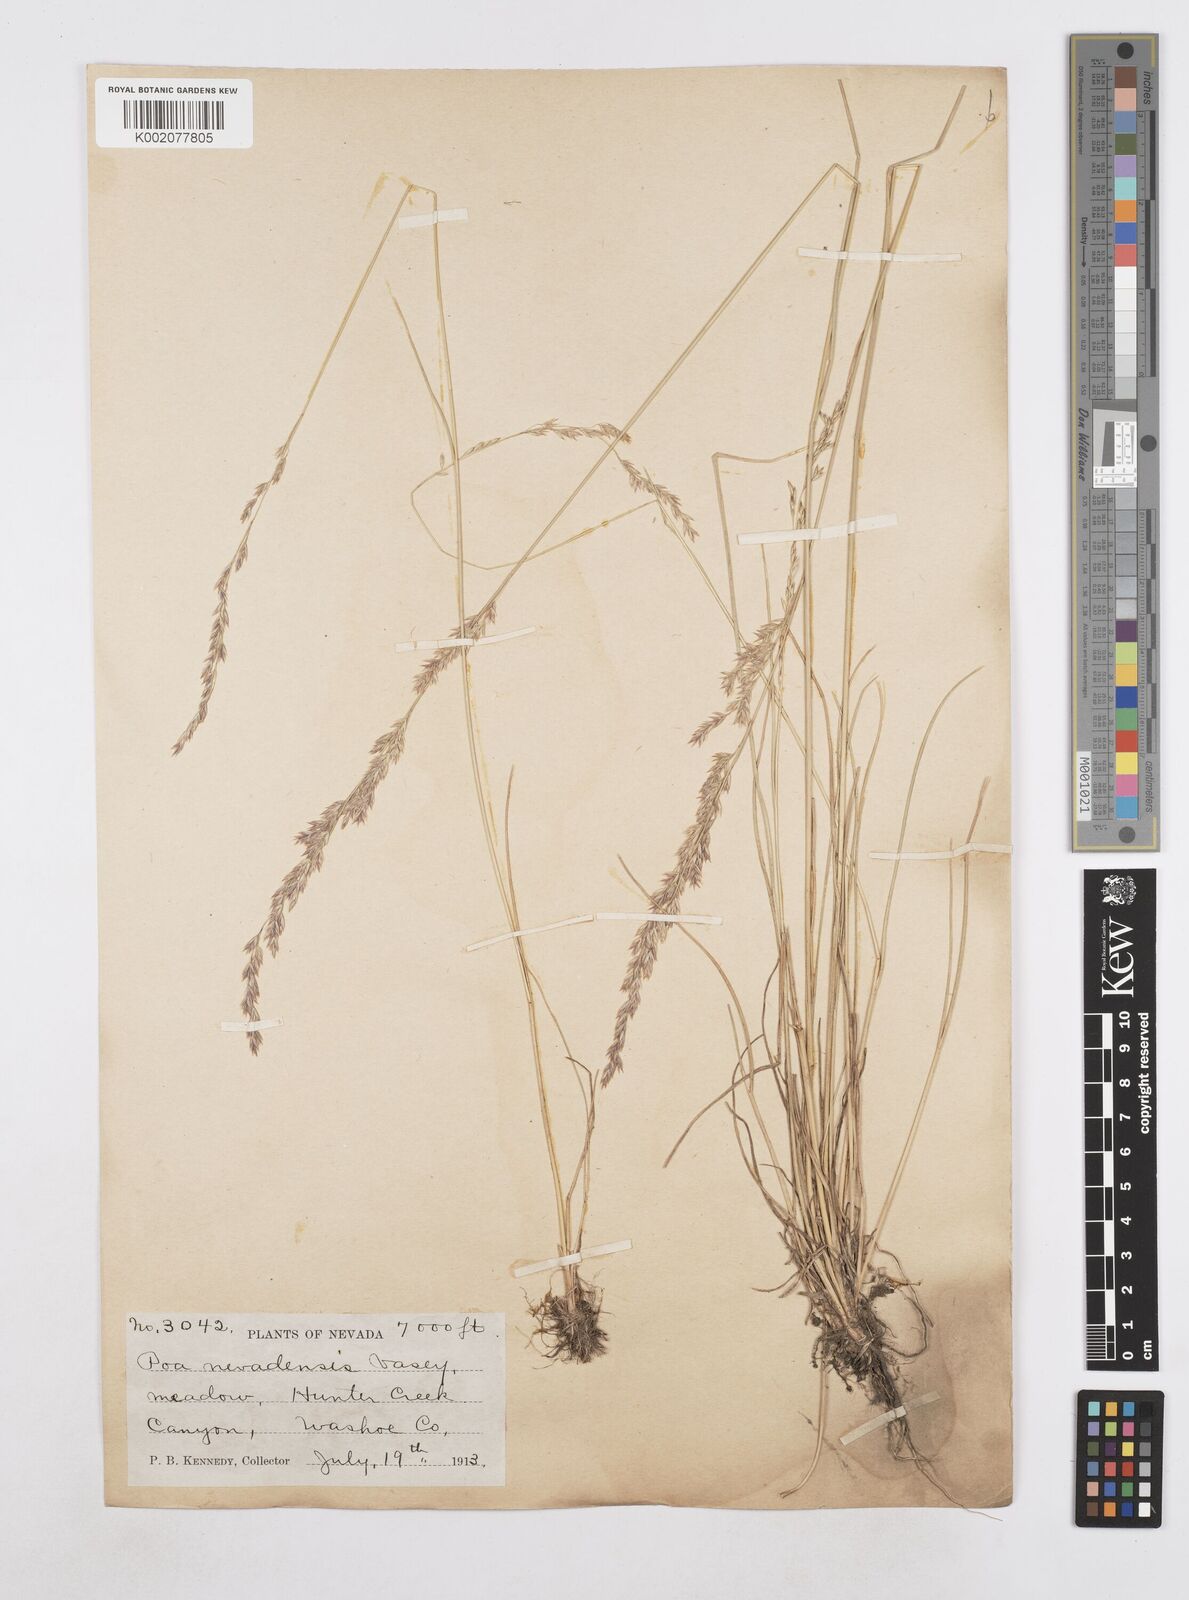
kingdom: Plantae
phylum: Tracheophyta
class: Liliopsida
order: Poales
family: Poaceae
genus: Poa
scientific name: Poa secunda
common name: Sandberg bluegrass
